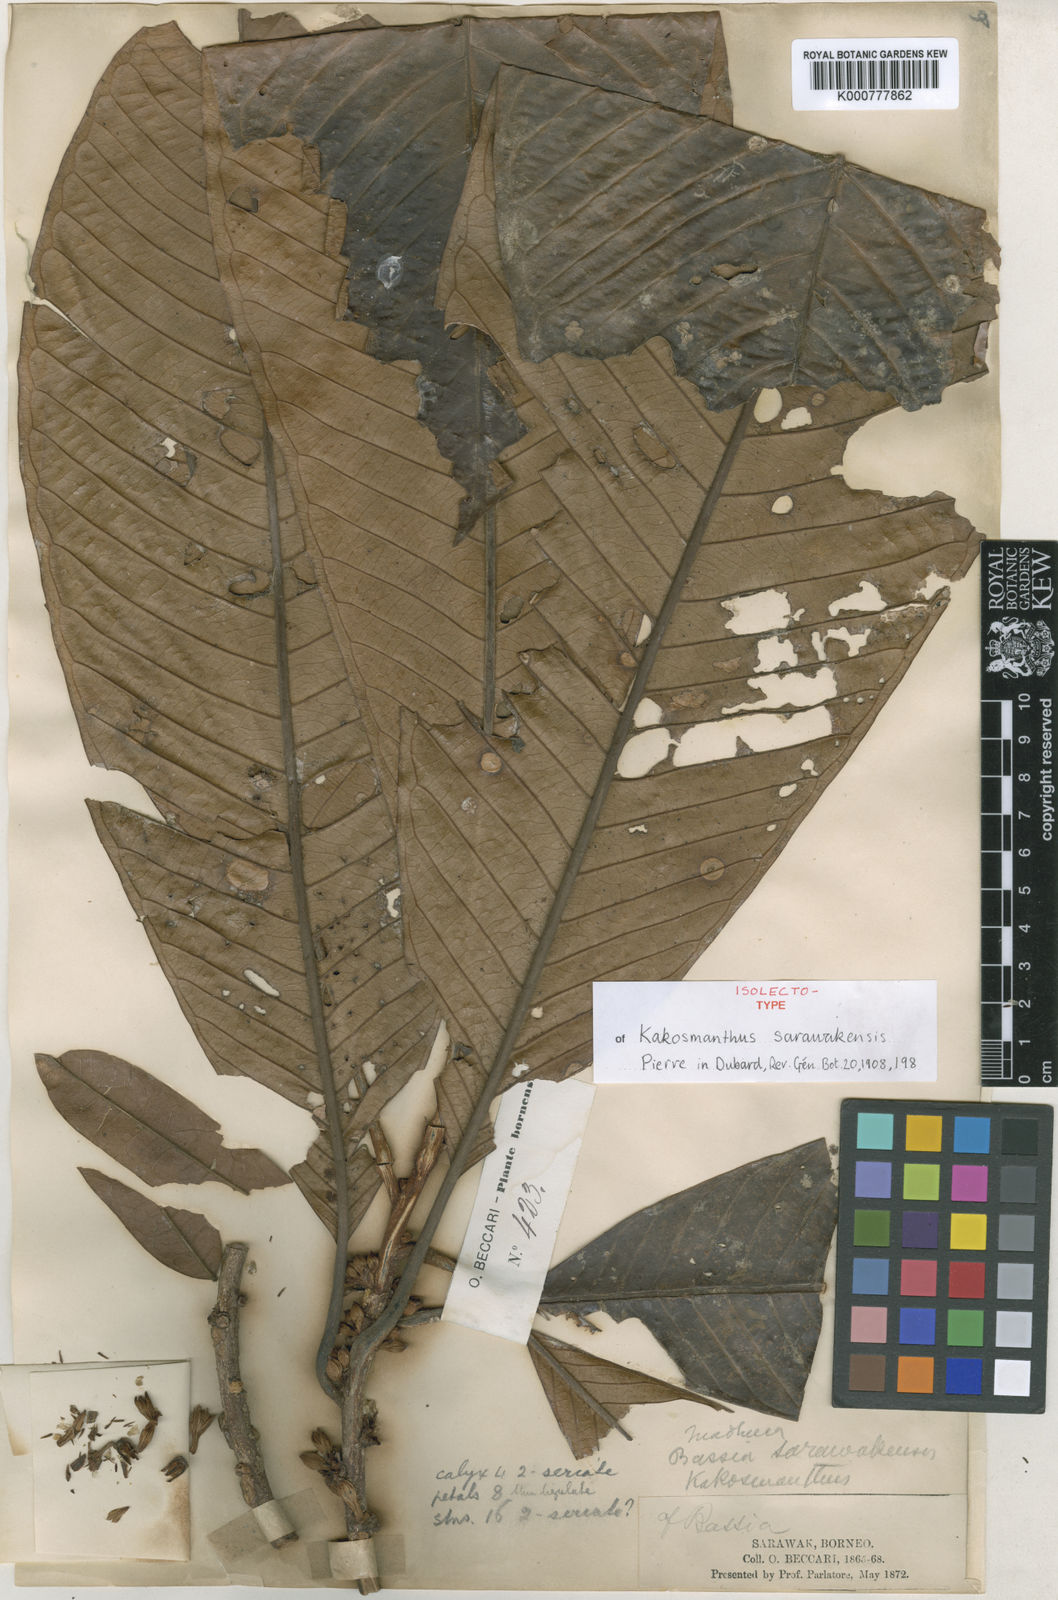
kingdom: Plantae
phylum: Tracheophyta
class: Magnoliopsida
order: Ericales
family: Sapotaceae
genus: Madhuca
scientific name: Madhuca sarawakensis
